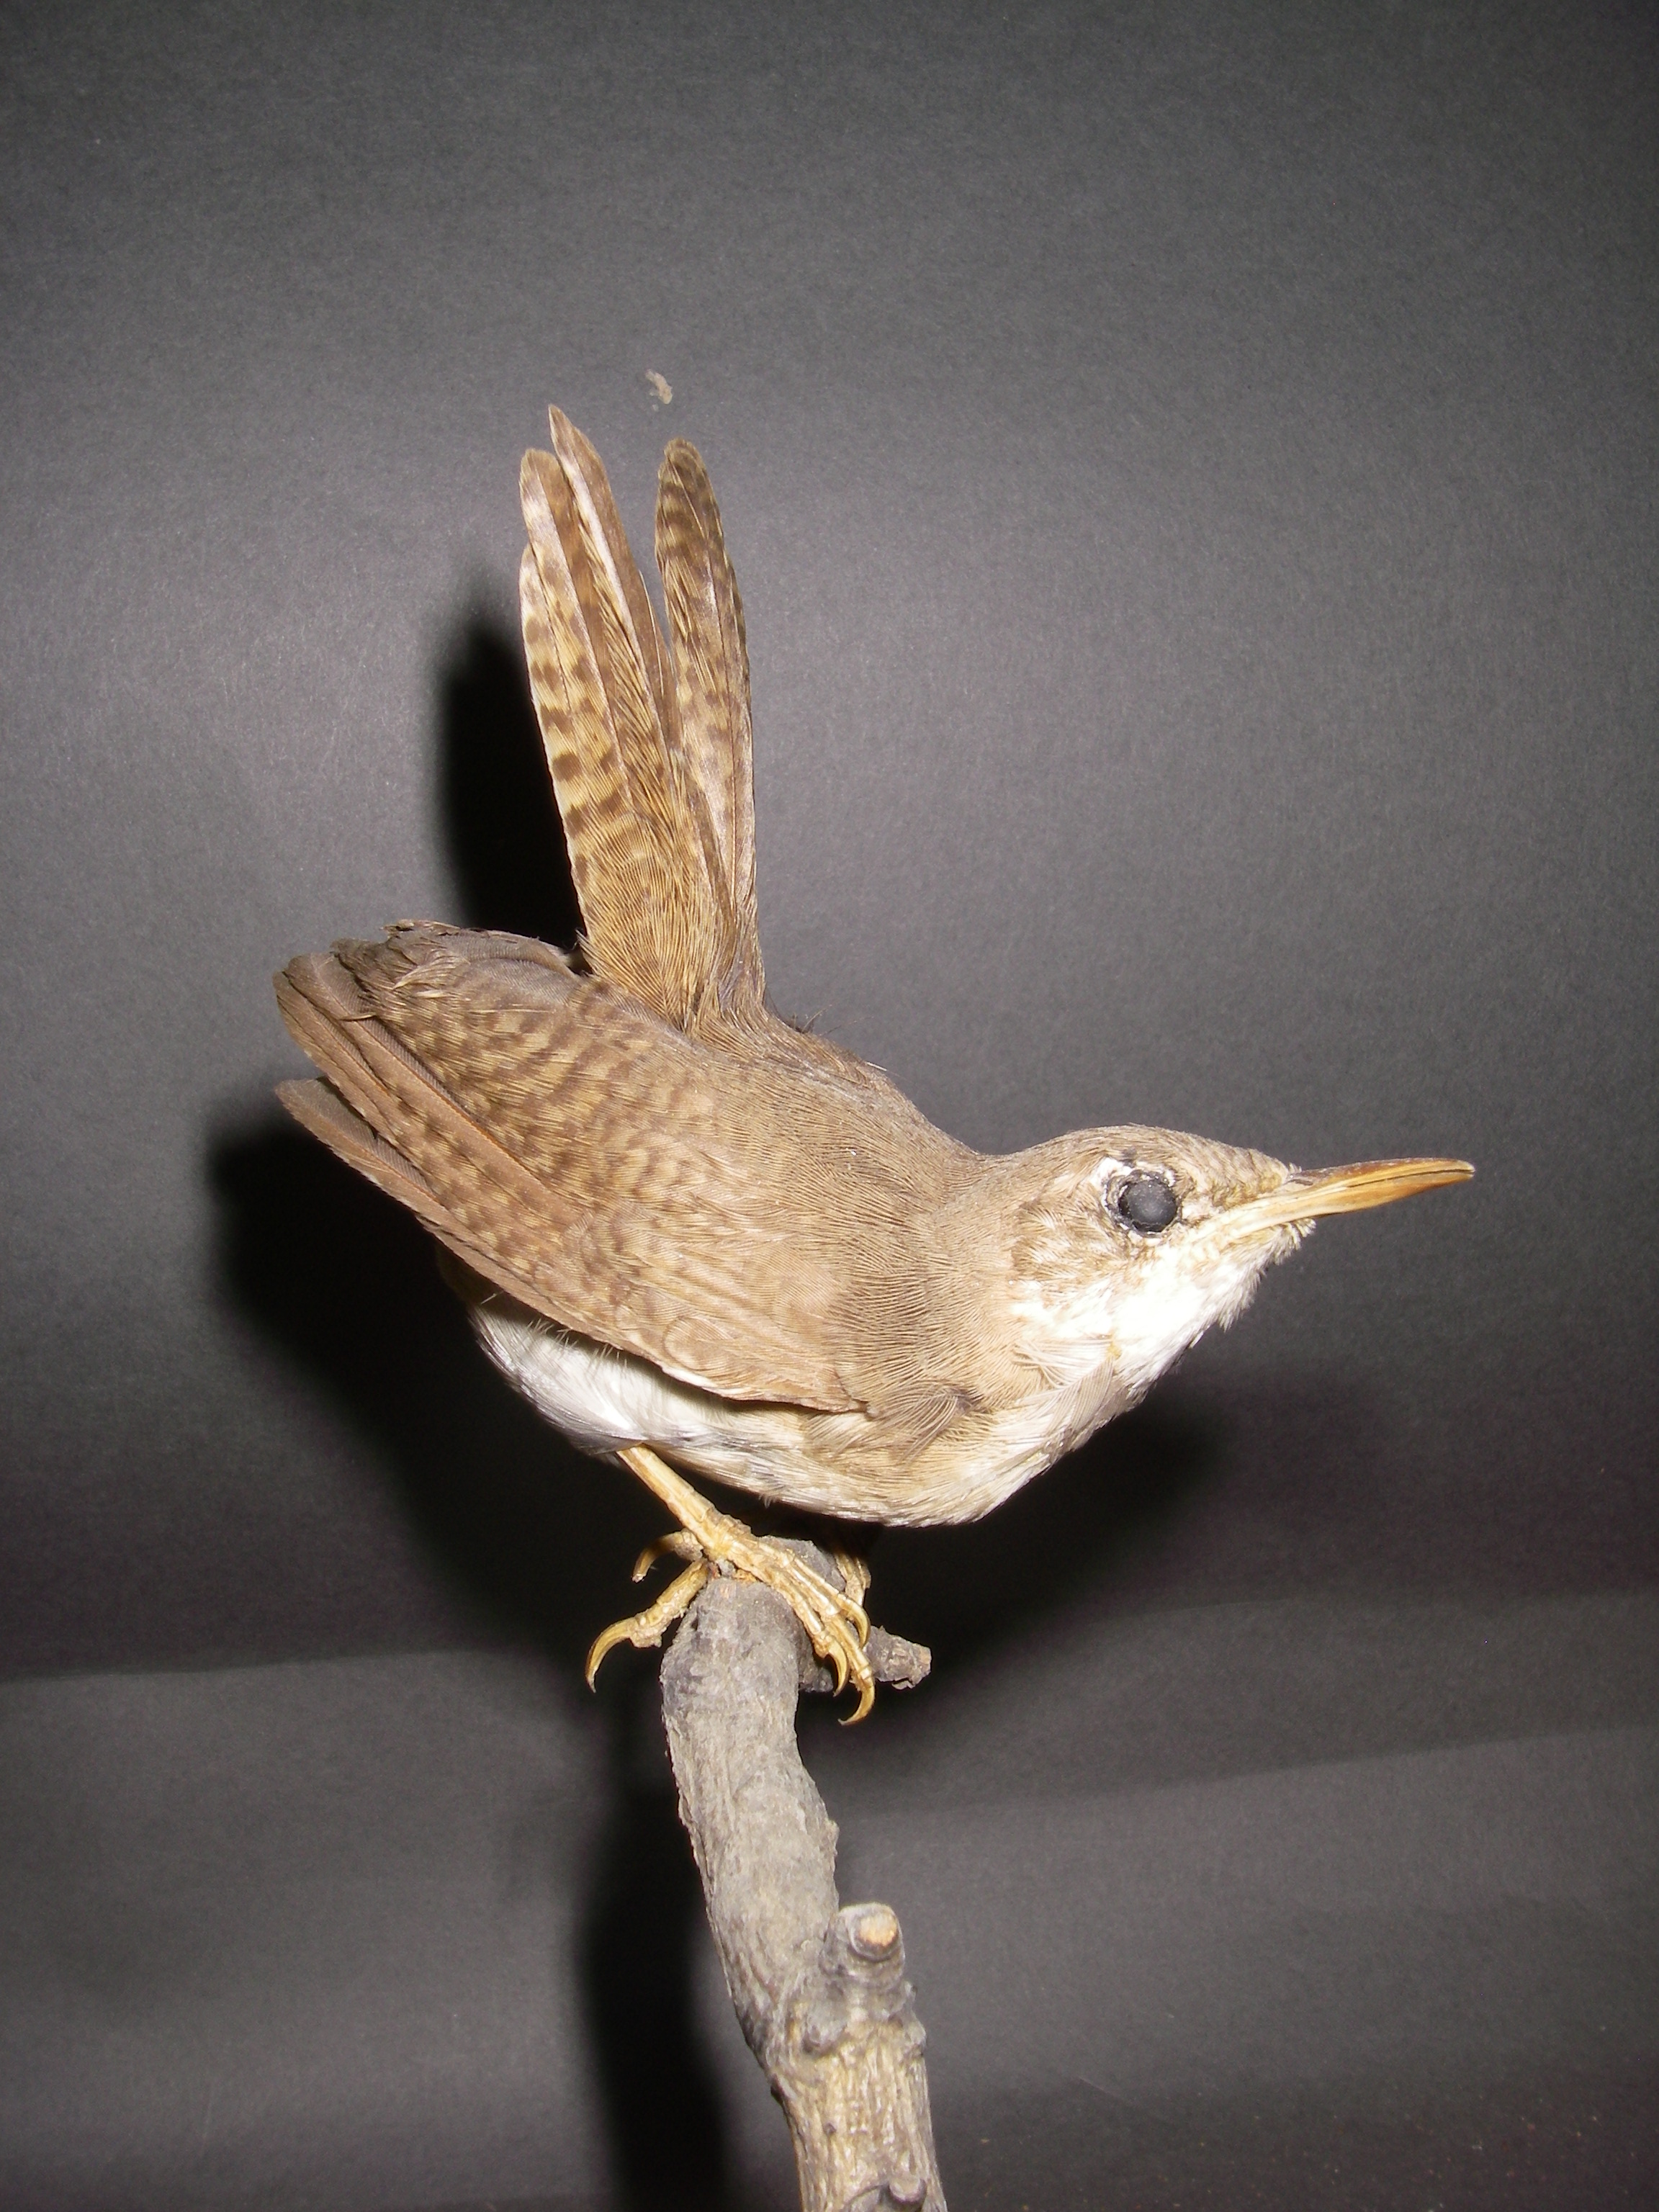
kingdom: Animalia
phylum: Chordata
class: Aves
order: Passeriformes
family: Troglodytidae
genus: Troglodytes
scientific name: Troglodytes aedon
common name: House wren
